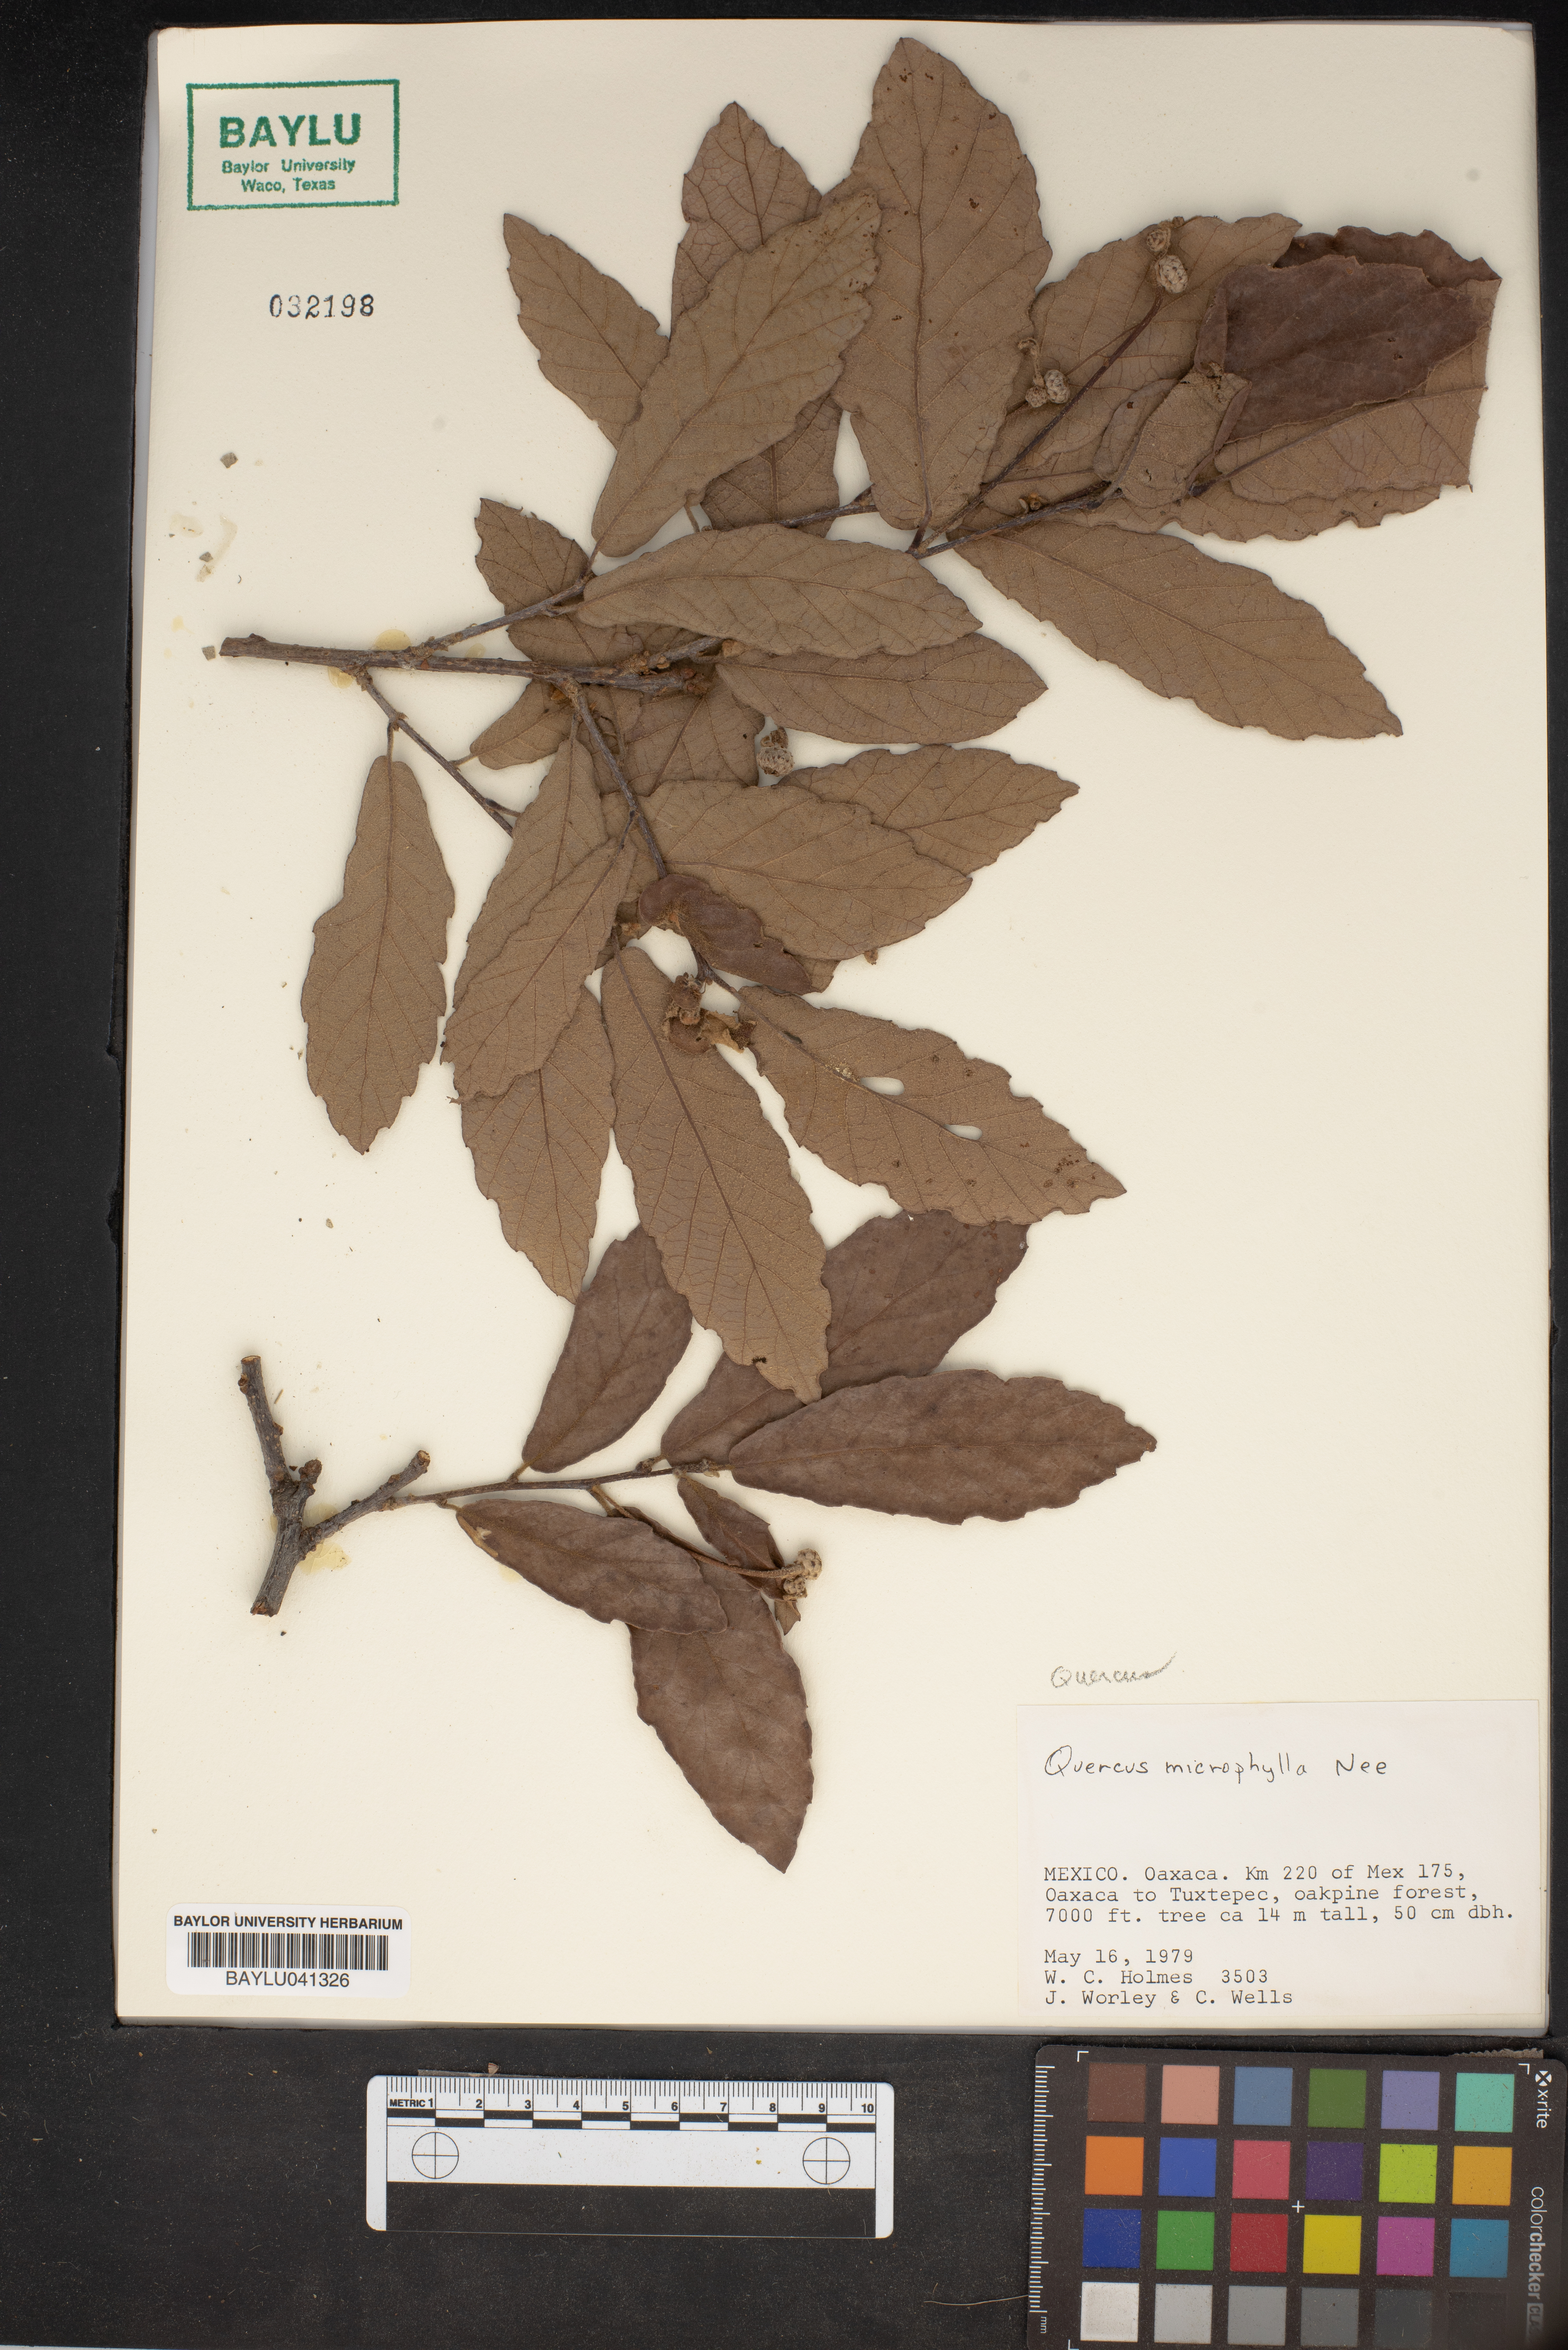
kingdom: Plantae
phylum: Tracheophyta
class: Magnoliopsida
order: Fagales
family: Fagaceae
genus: Quercus
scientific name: Quercus microphylla
